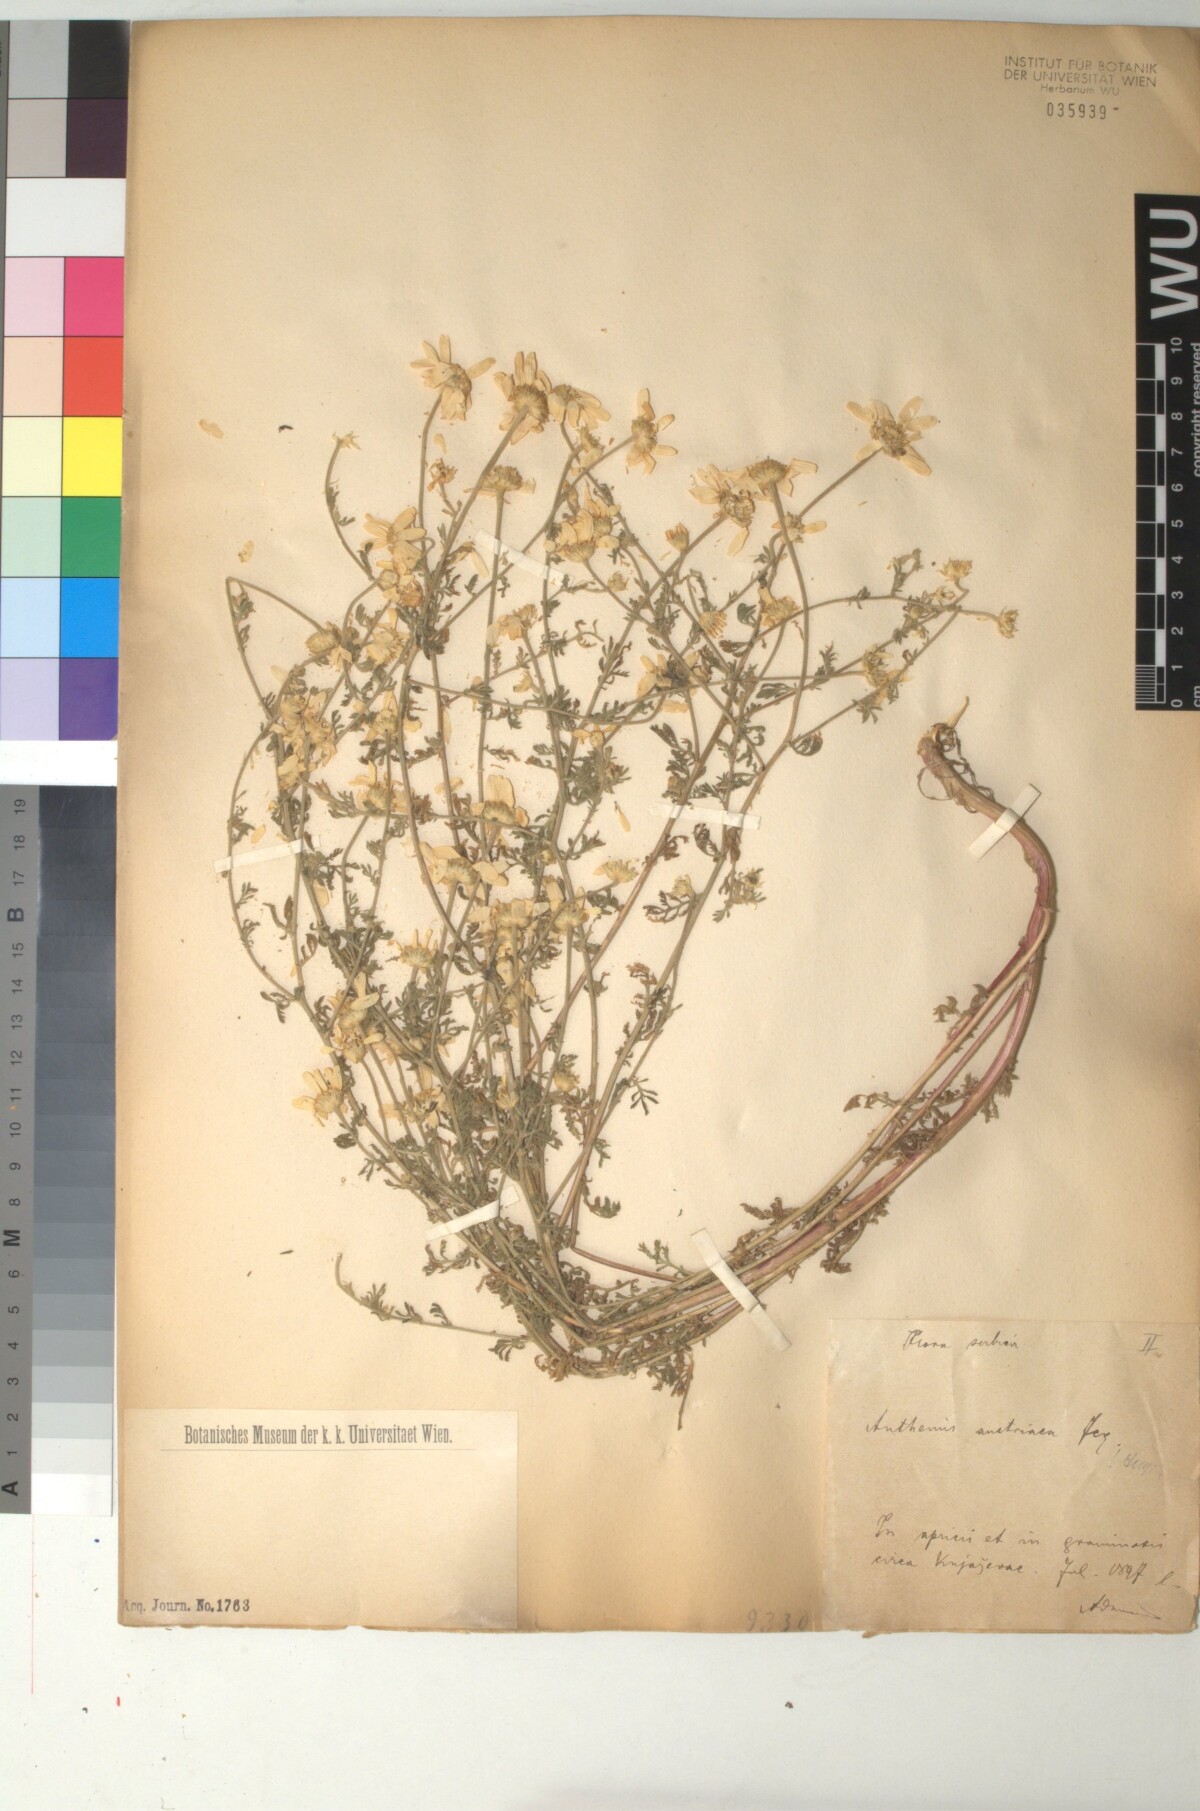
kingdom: Plantae
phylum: Tracheophyta
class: Magnoliopsida
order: Asterales
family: Asteraceae
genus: Cota
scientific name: Cota austriaca
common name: Austrian chamomile
